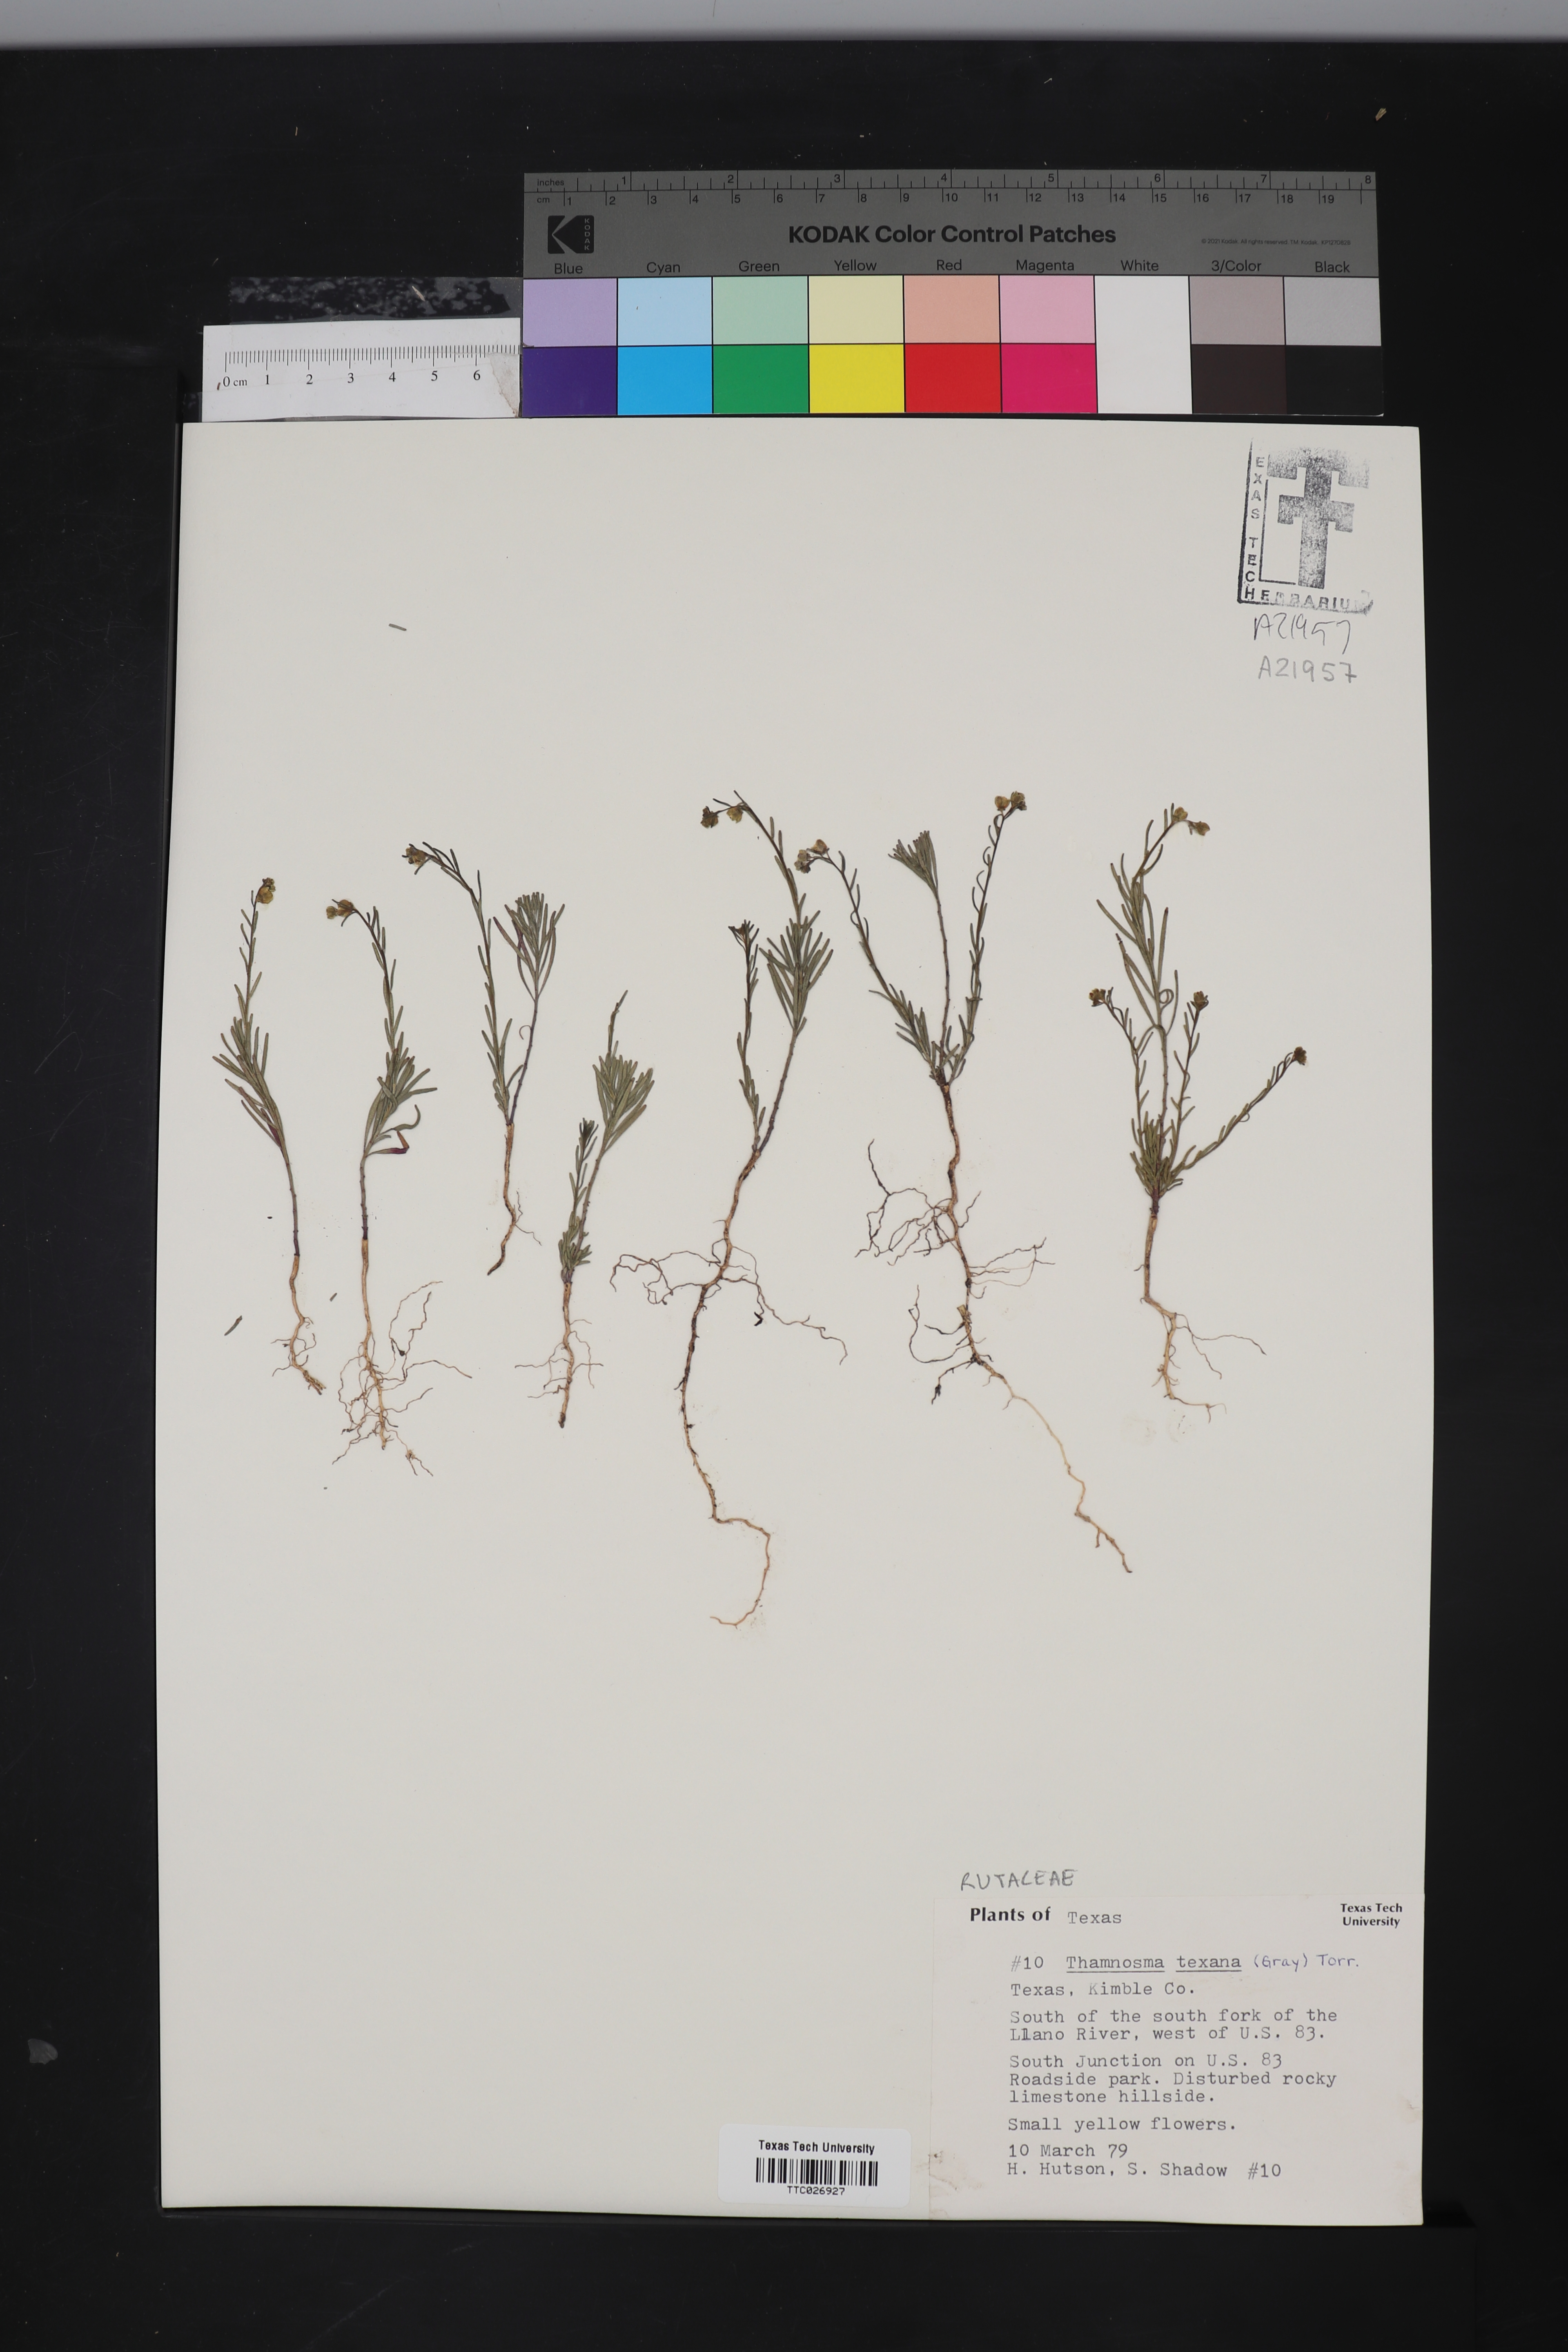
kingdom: Plantae
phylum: Tracheophyta
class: Magnoliopsida
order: Sapindales
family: Rutaceae
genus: Thamnosma
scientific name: Thamnosma texana
